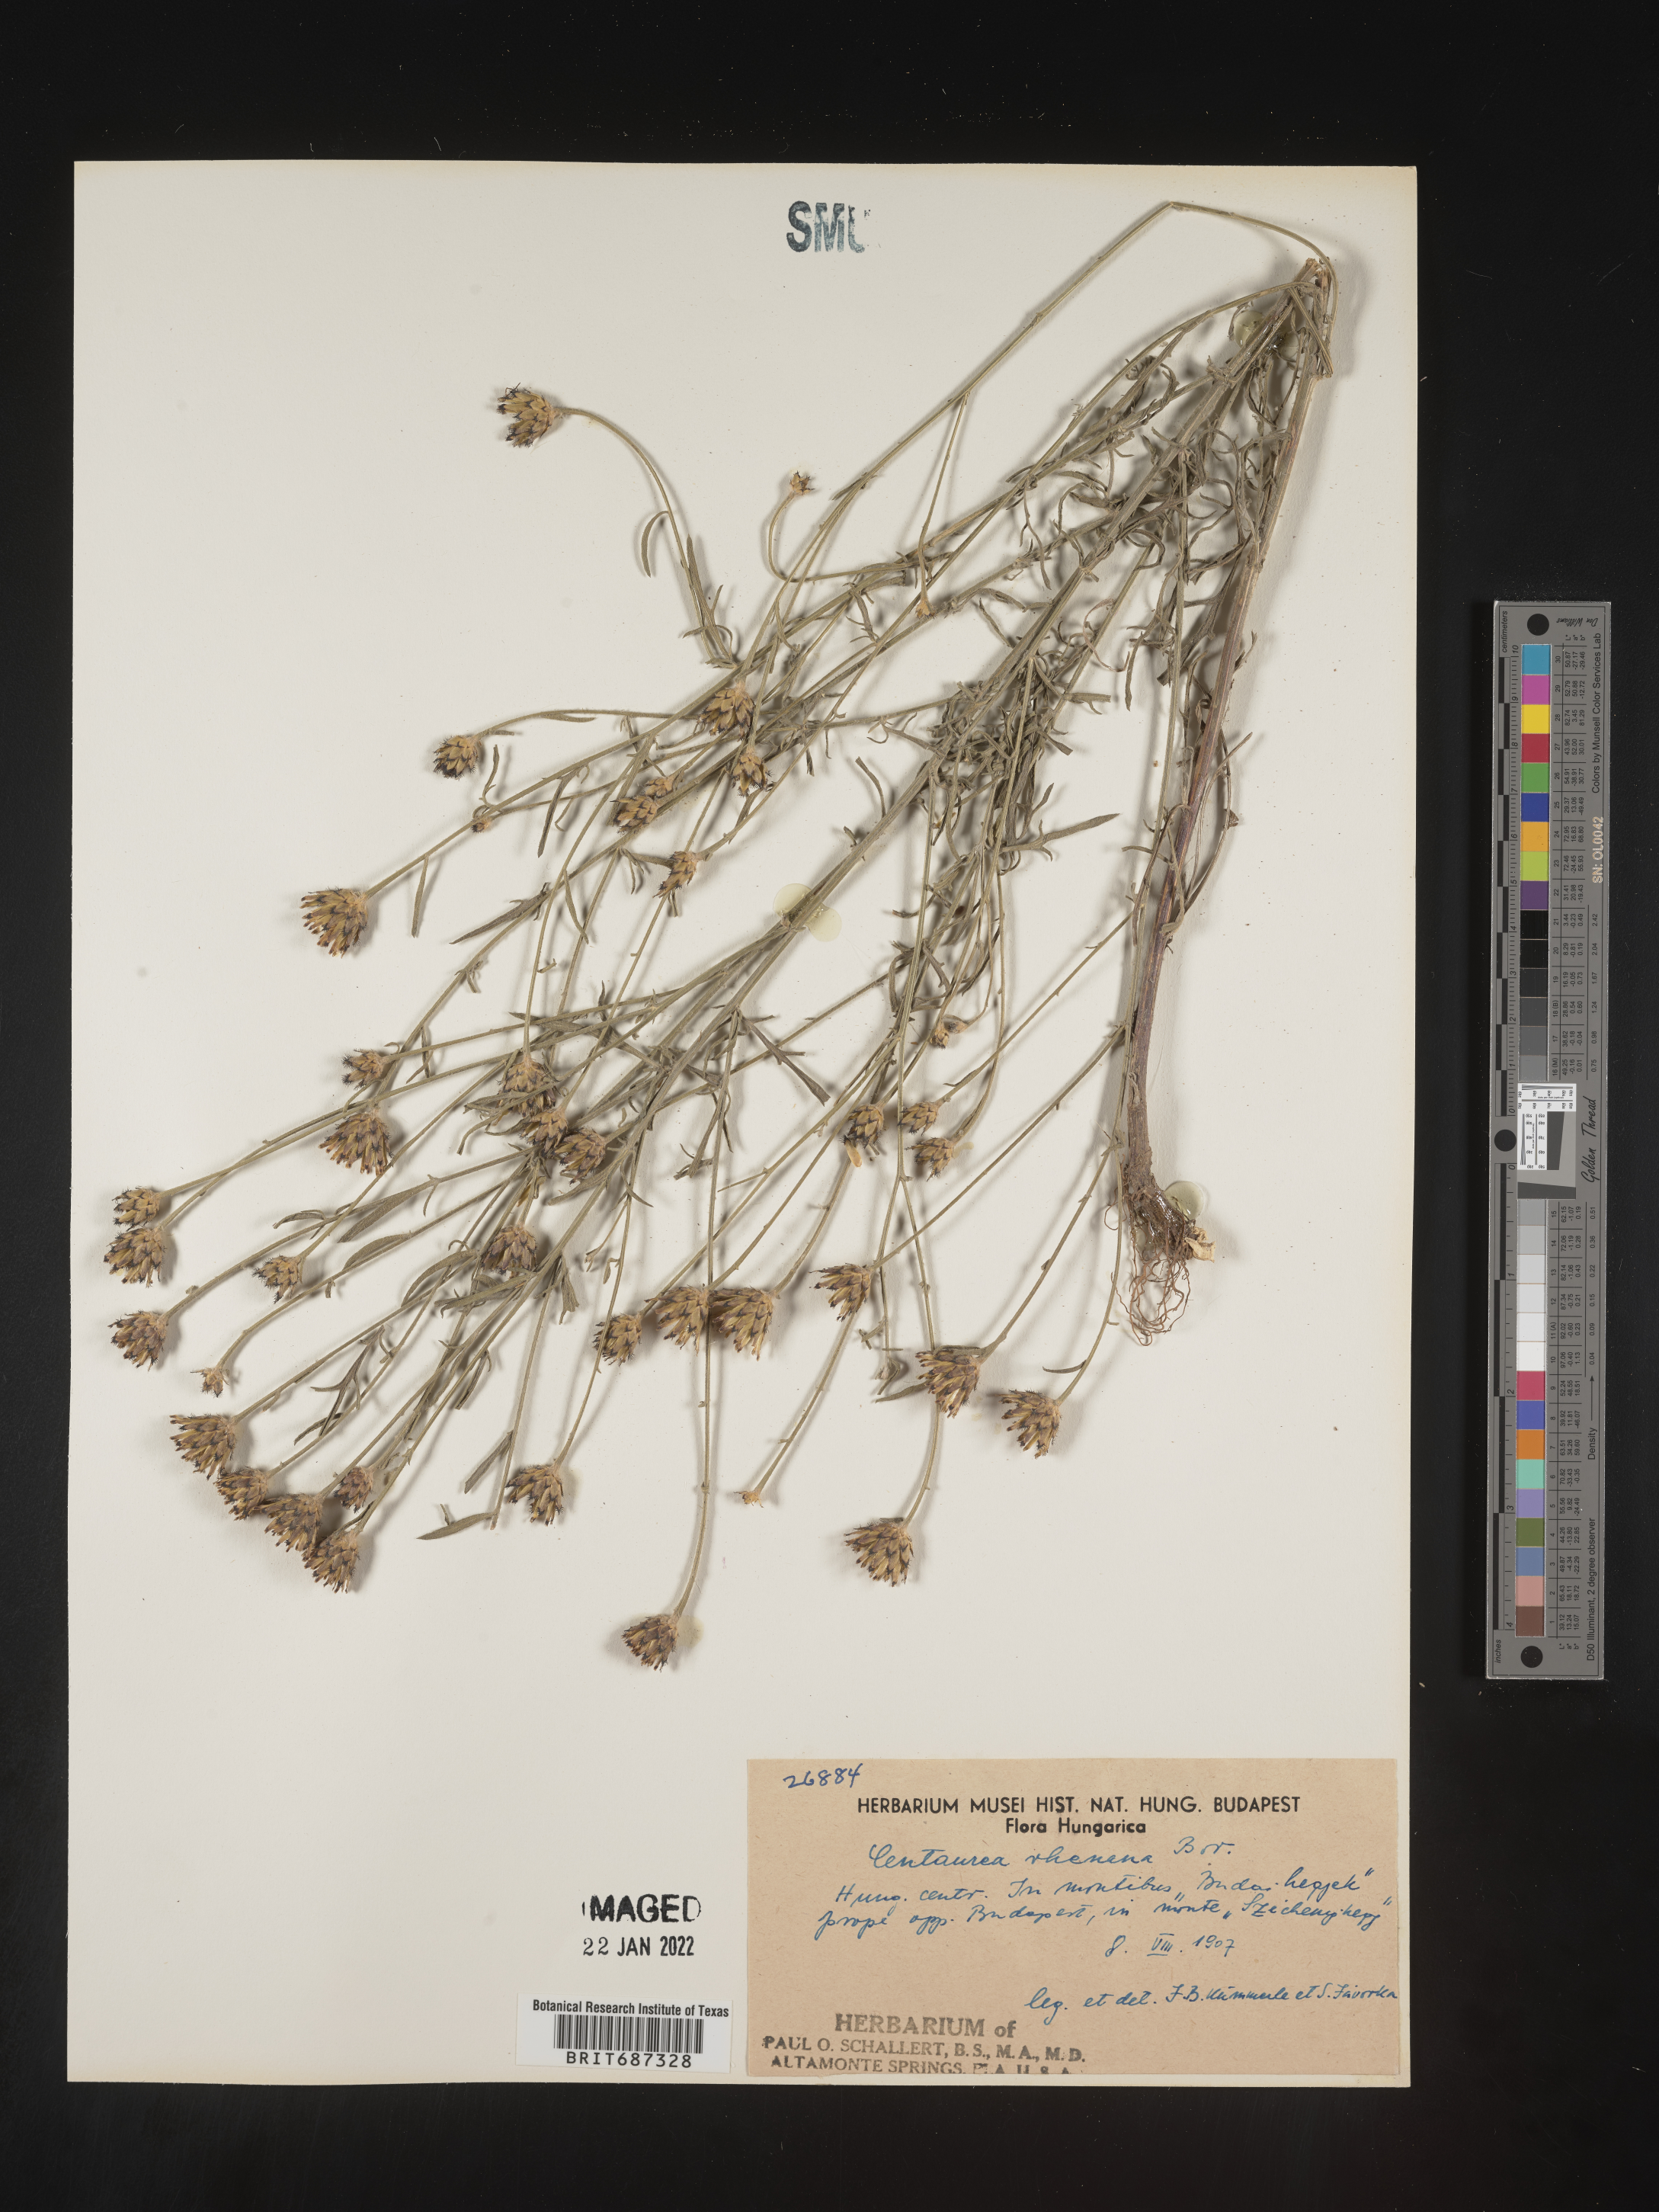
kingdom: Plantae
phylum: Tracheophyta
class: Magnoliopsida
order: Asterales
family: Asteraceae
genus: Centaurea
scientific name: Centaurea
